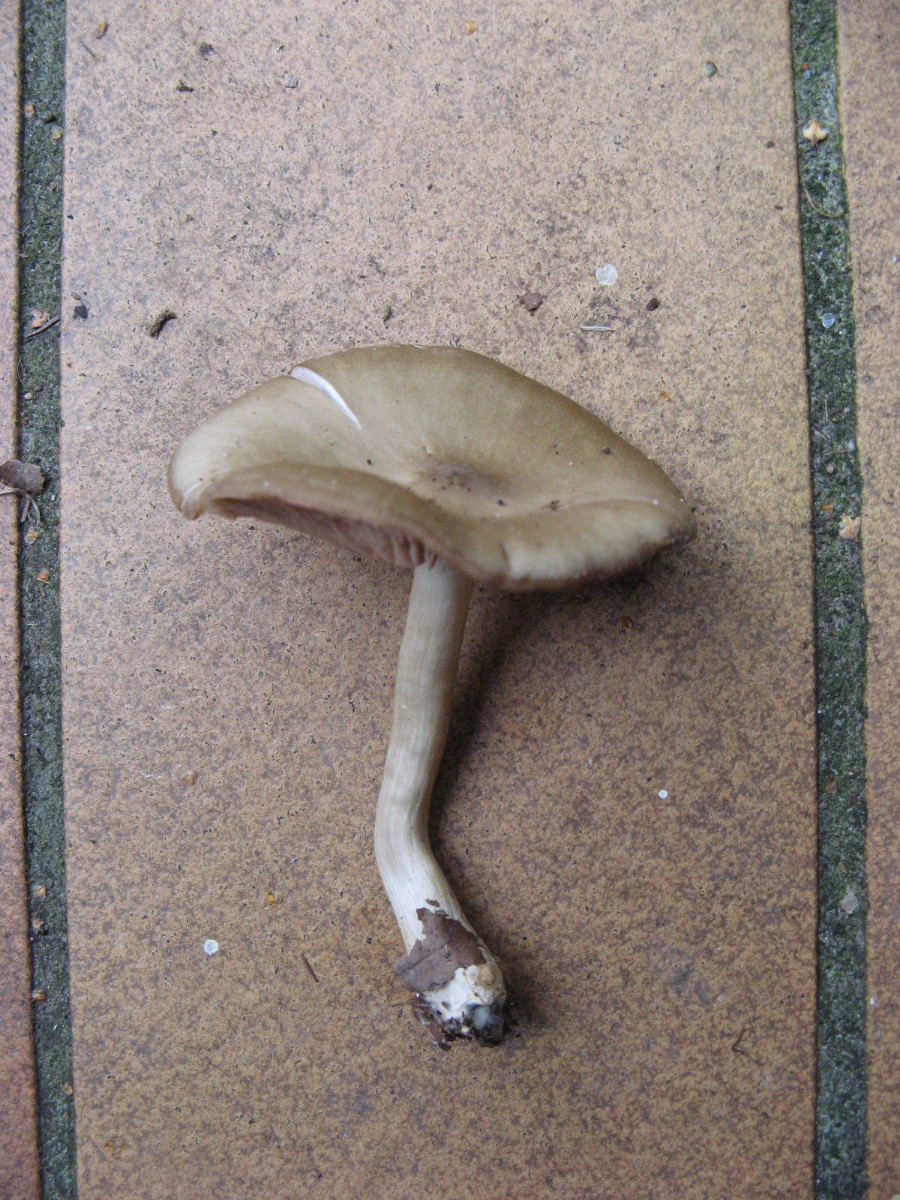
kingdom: Fungi
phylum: Basidiomycota
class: Agaricomycetes
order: Agaricales
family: Entolomataceae
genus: Entoloma
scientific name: Entoloma
